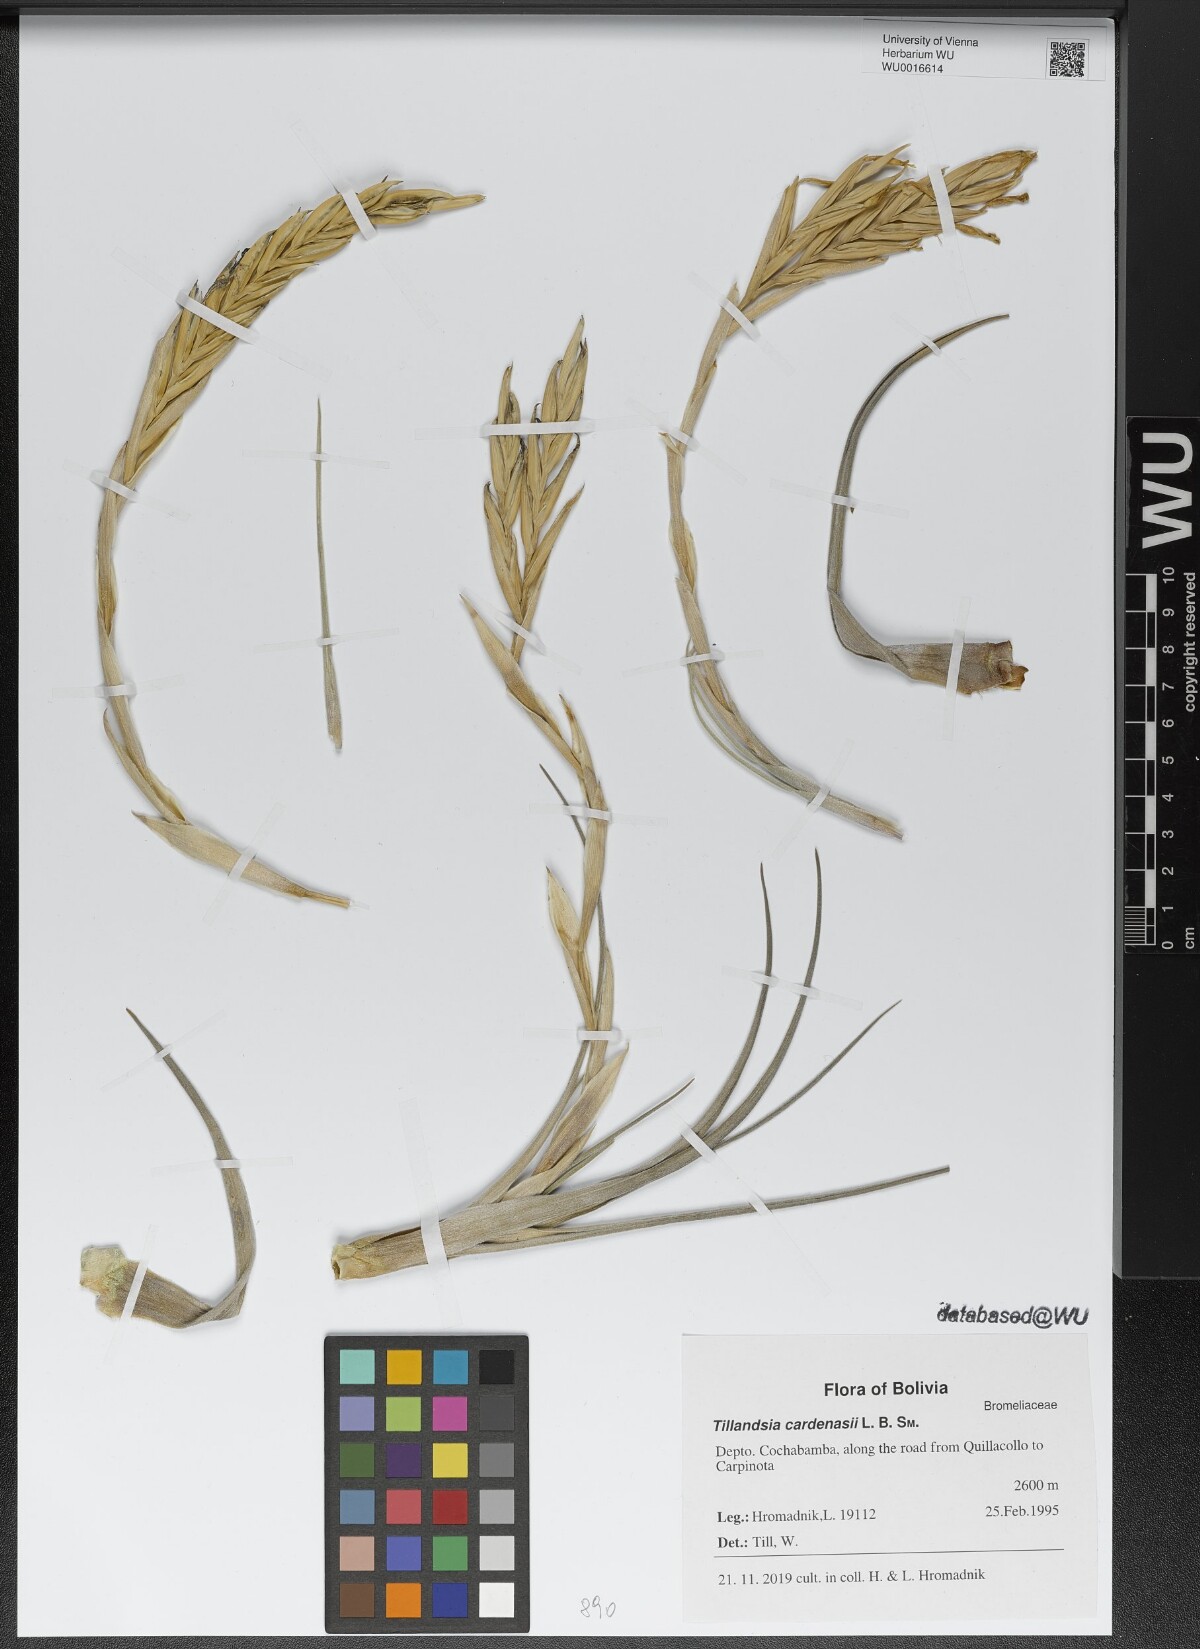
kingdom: Plantae
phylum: Tracheophyta
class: Liliopsida
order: Poales
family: Bromeliaceae
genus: Tillandsia
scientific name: Tillandsia cardenasii
